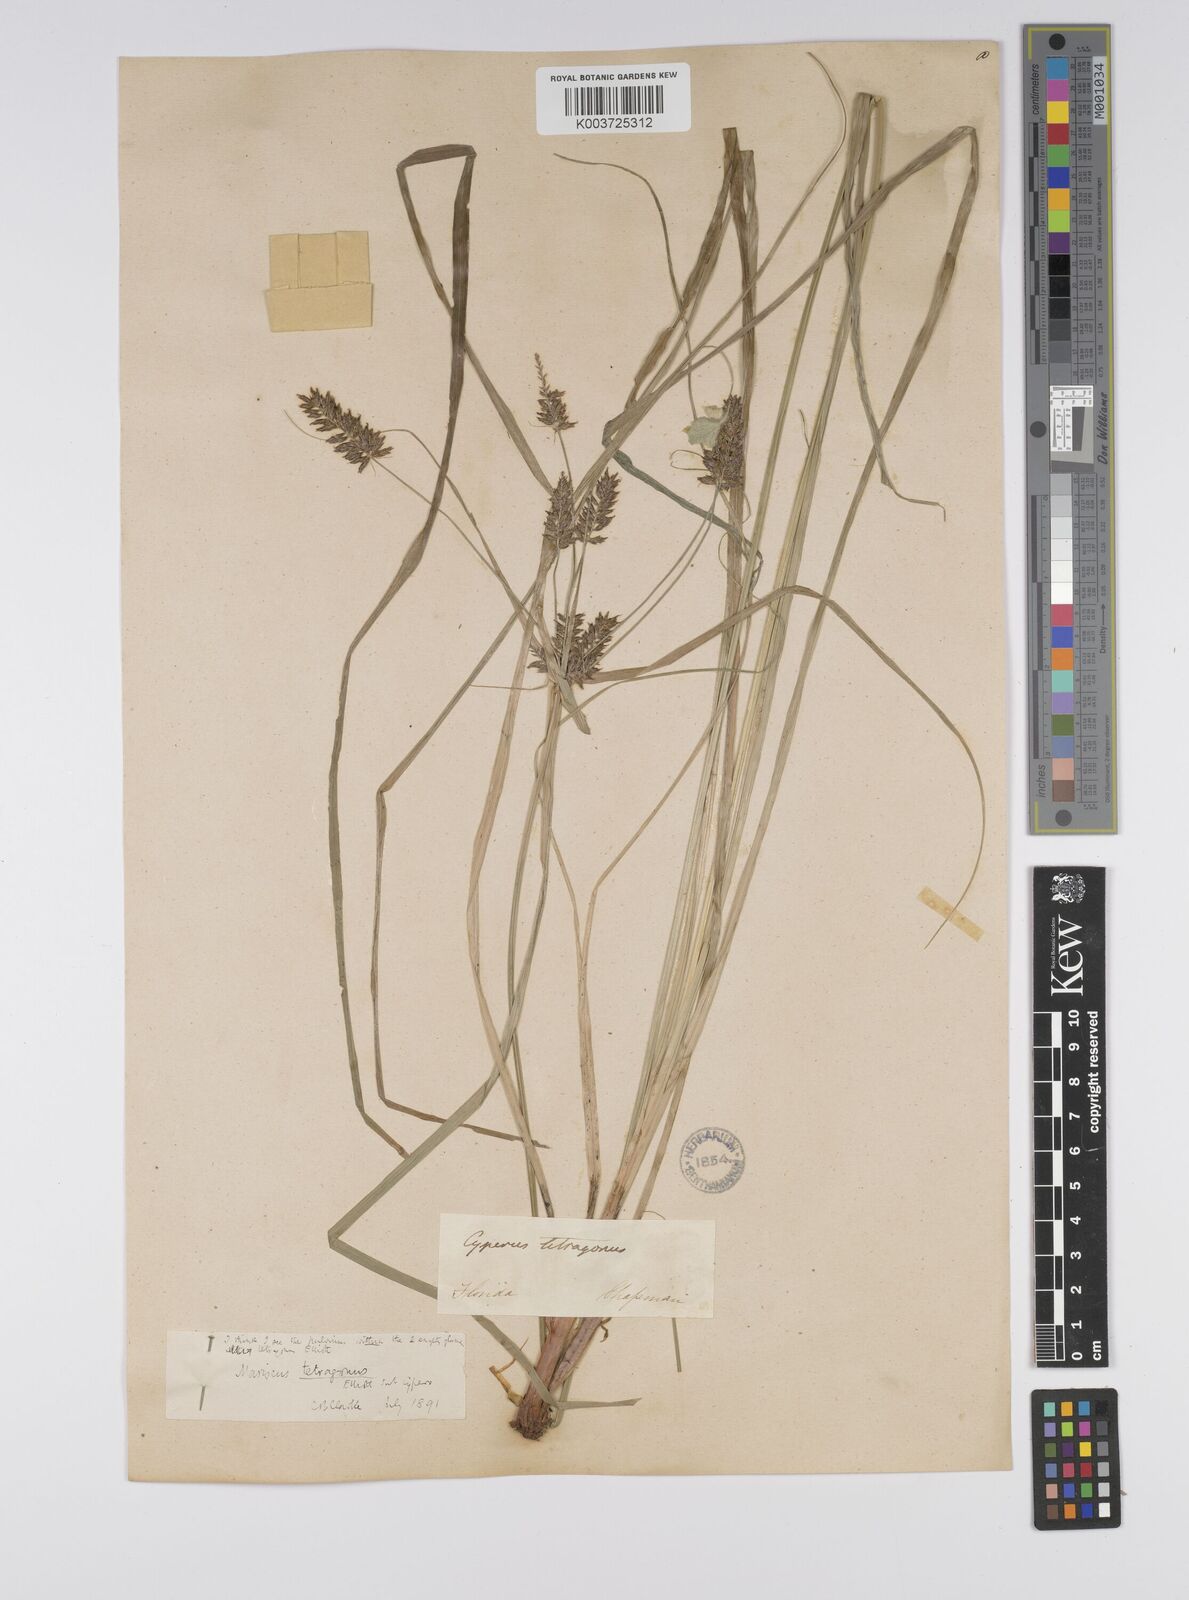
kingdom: Plantae
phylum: Tracheophyta
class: Liliopsida
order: Poales
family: Cyperaceae
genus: Cyperus
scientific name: Cyperus tetragonus
